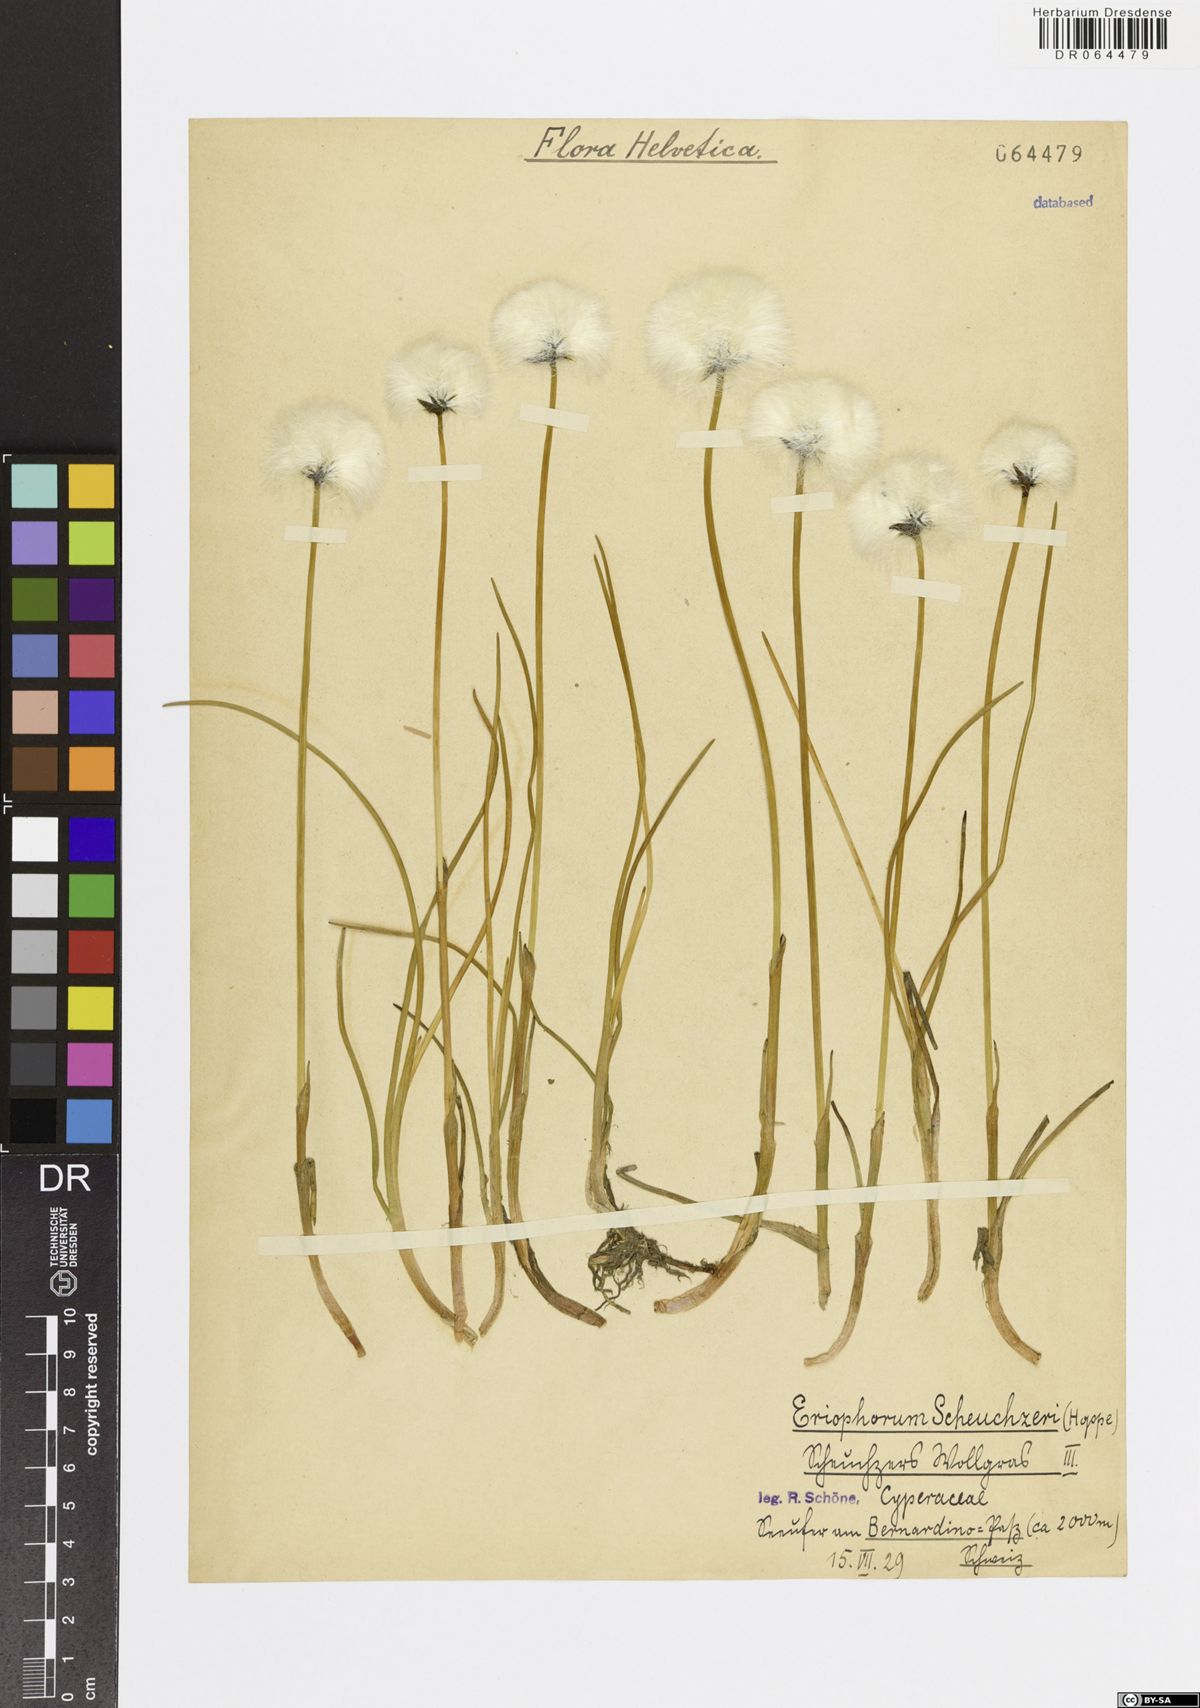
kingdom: Plantae
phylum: Tracheophyta
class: Liliopsida
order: Poales
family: Cyperaceae
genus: Eriophorum
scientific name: Eriophorum scheuchzeri
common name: Scheuchzer's cottongrass
